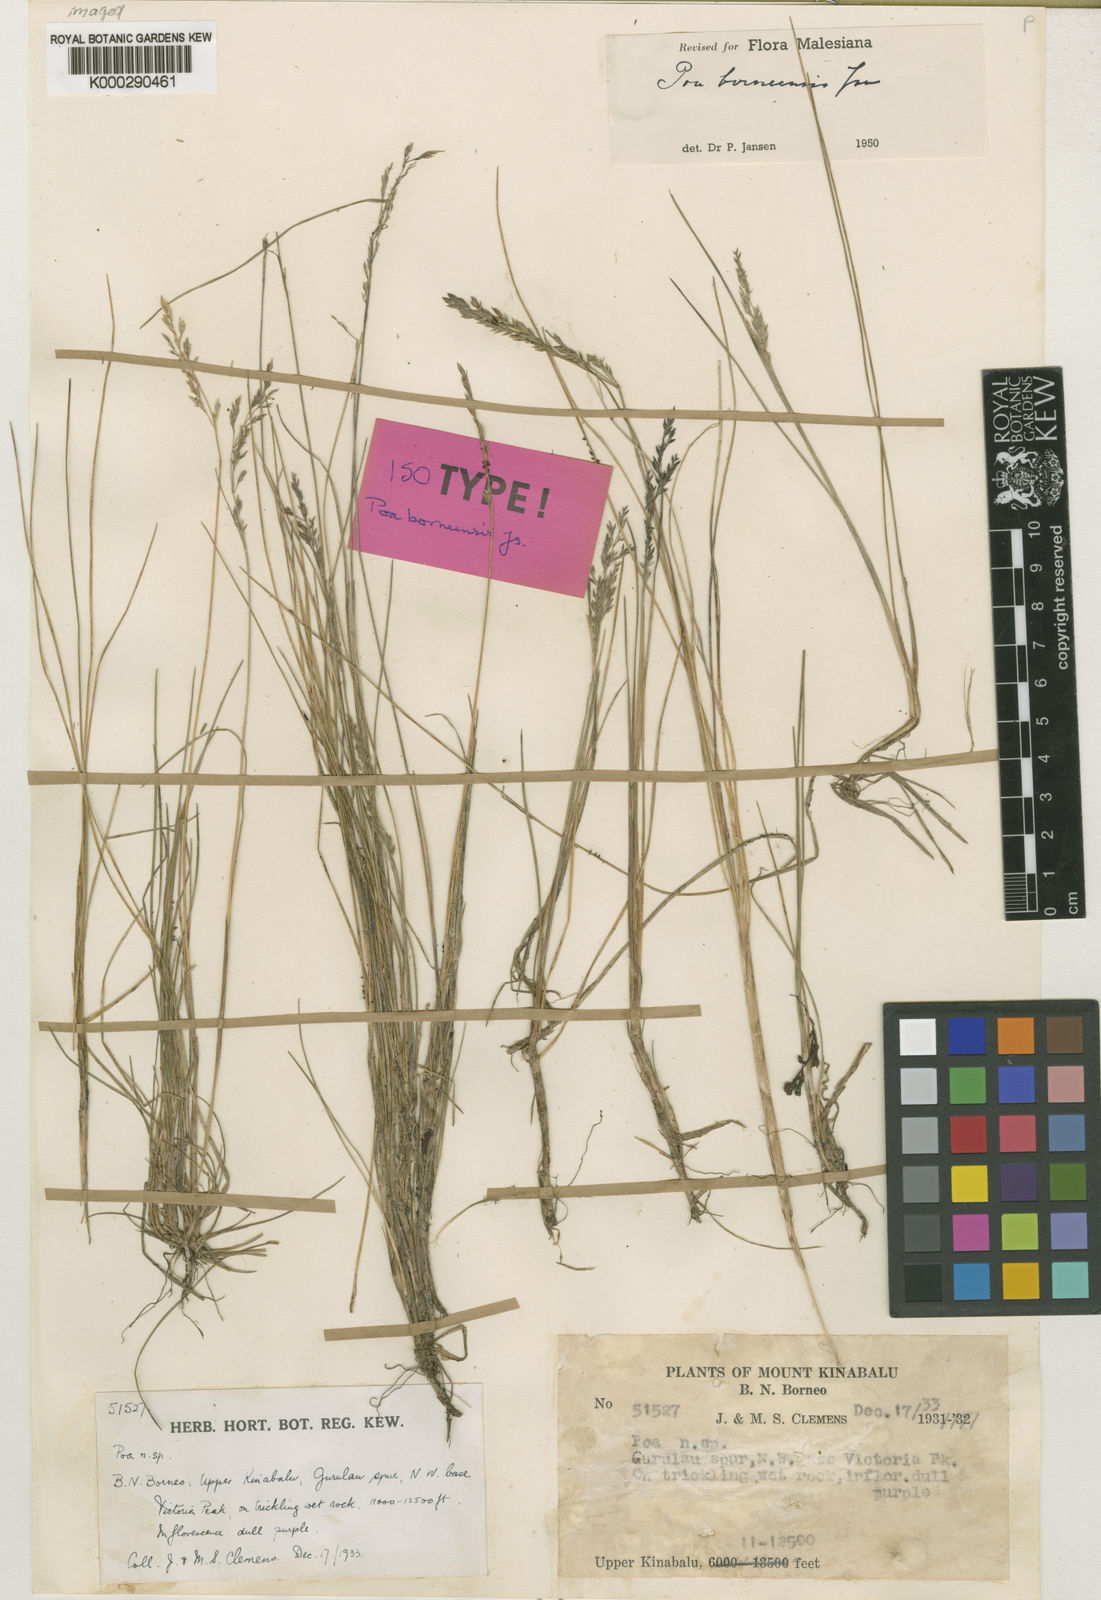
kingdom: Plantae
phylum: Tracheophyta
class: Liliopsida
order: Poales
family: Poaceae
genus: Poa
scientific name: Poa borneensis
